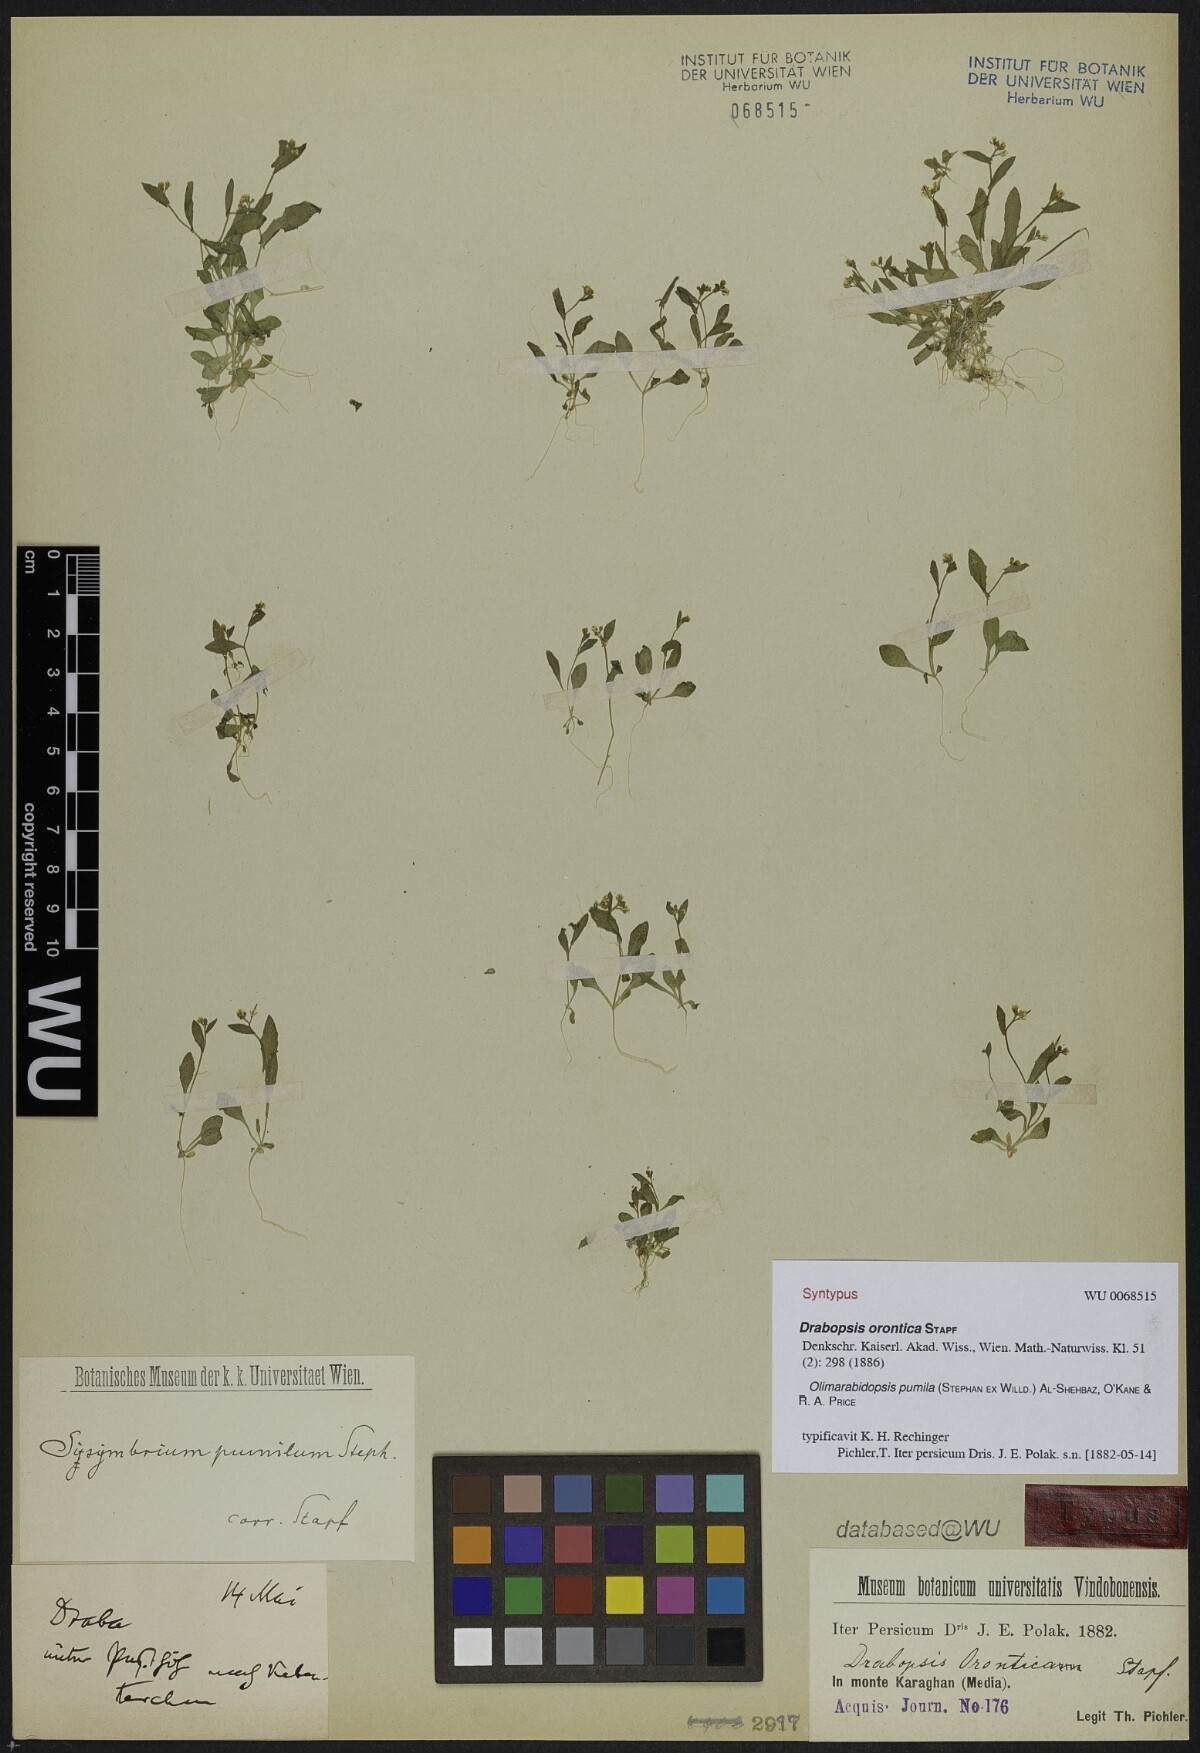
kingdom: Plantae
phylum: Tracheophyta
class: Magnoliopsida
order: Brassicales
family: Brassicaceae
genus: Sisymbrium
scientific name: Sisymbrium pumilum
